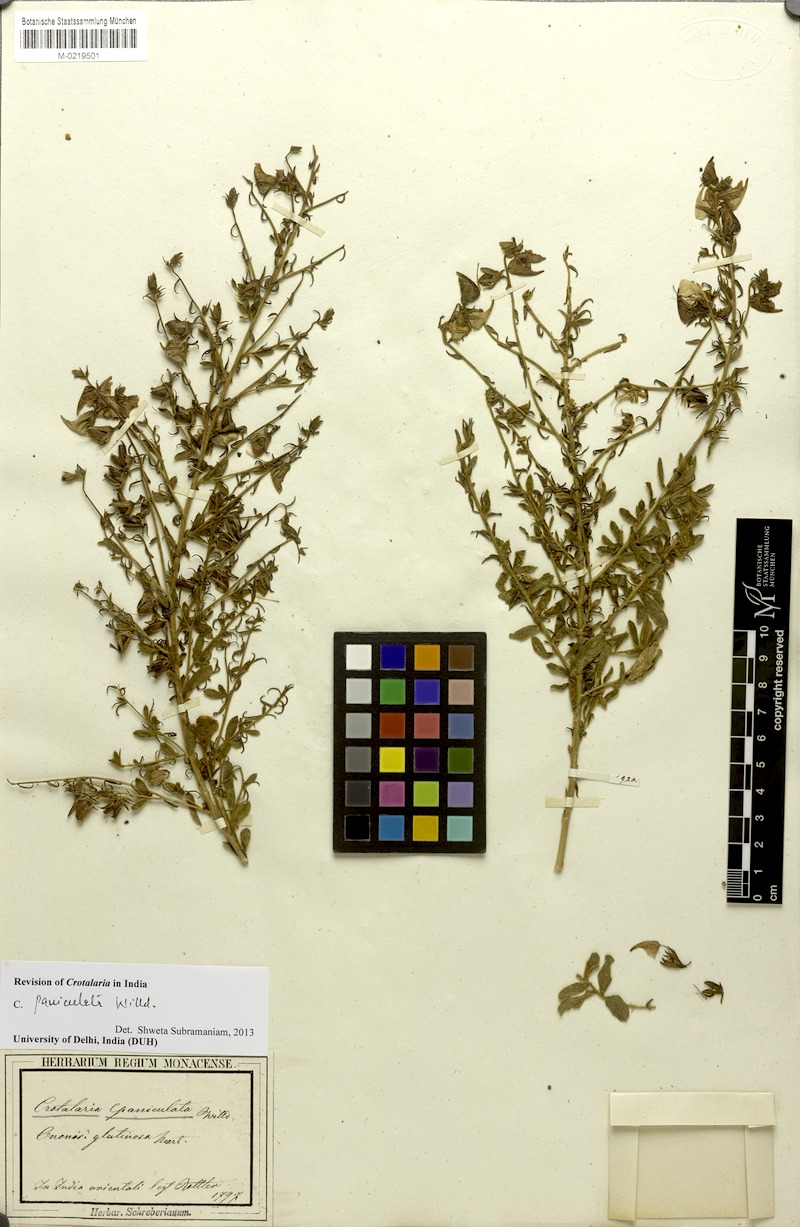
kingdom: Plantae
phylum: Tracheophyta
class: Magnoliopsida
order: Fabales
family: Fabaceae
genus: Crotalaria
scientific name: Crotalaria paniculata
